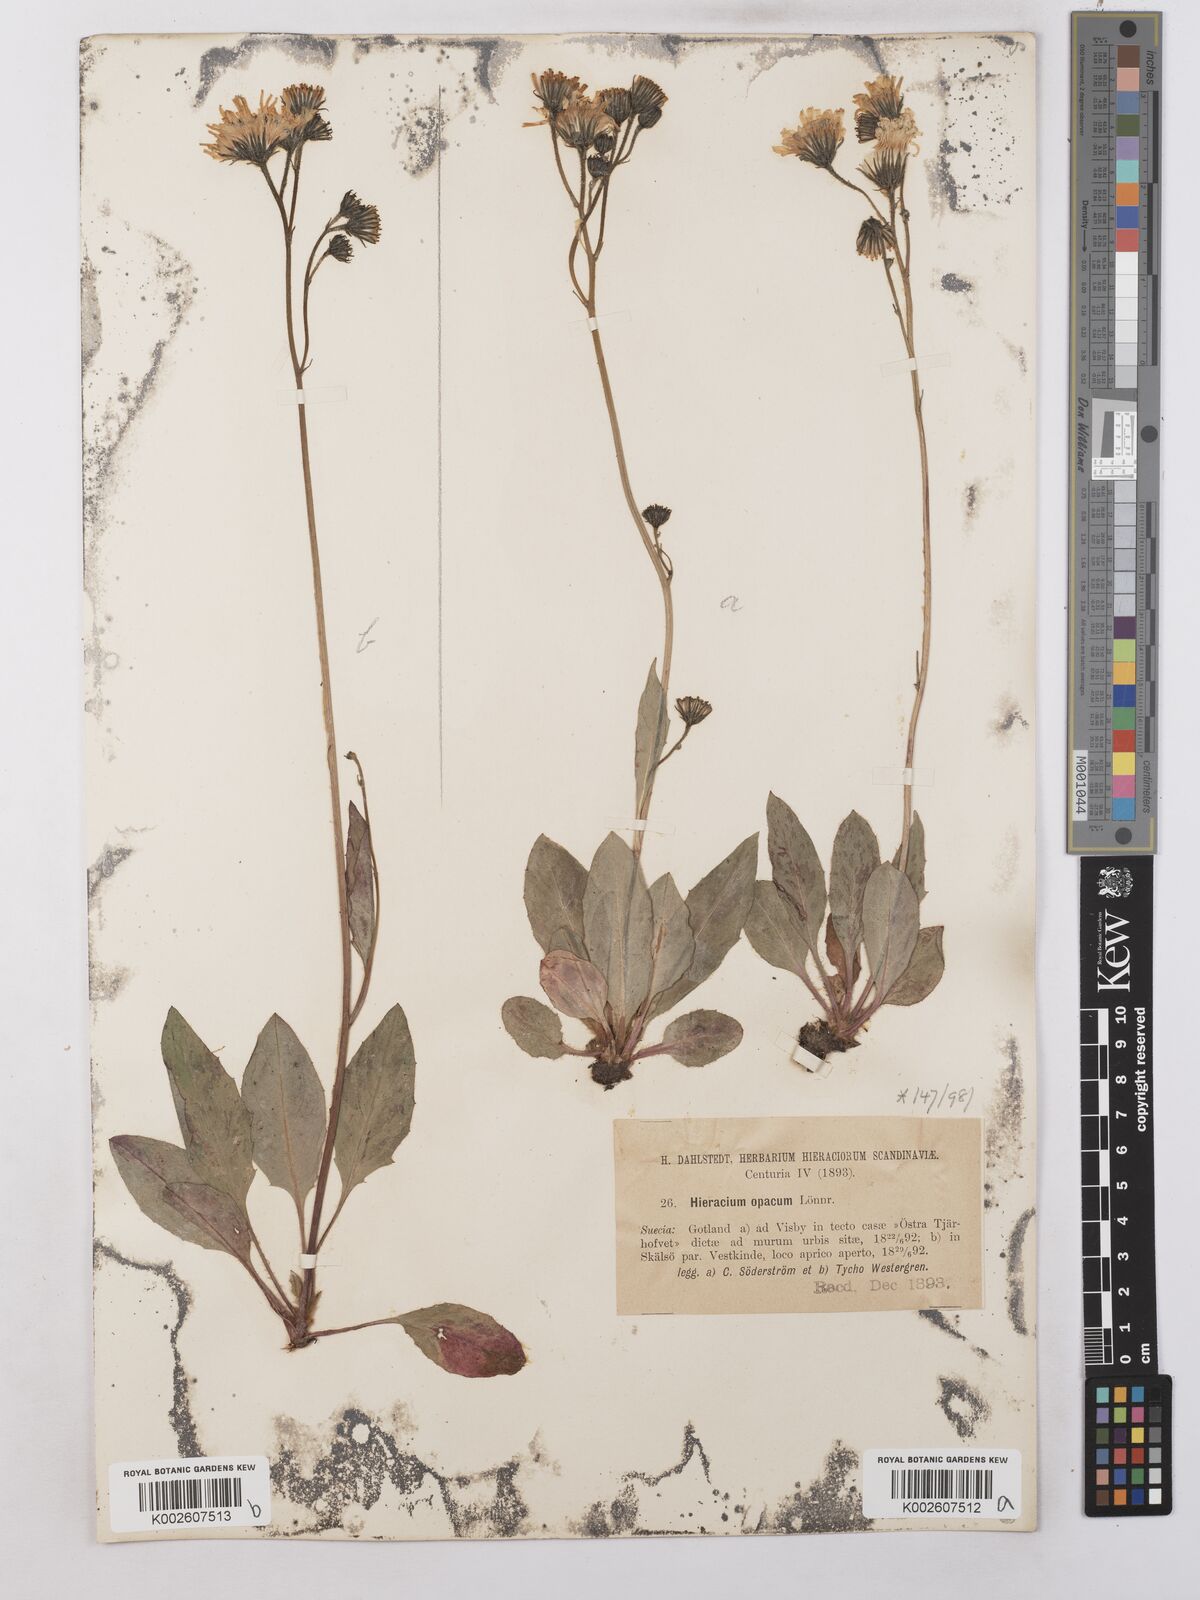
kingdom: Plantae
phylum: Tracheophyta
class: Magnoliopsida
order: Asterales
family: Asteraceae
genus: Hieracium
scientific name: Hieracium caesium
